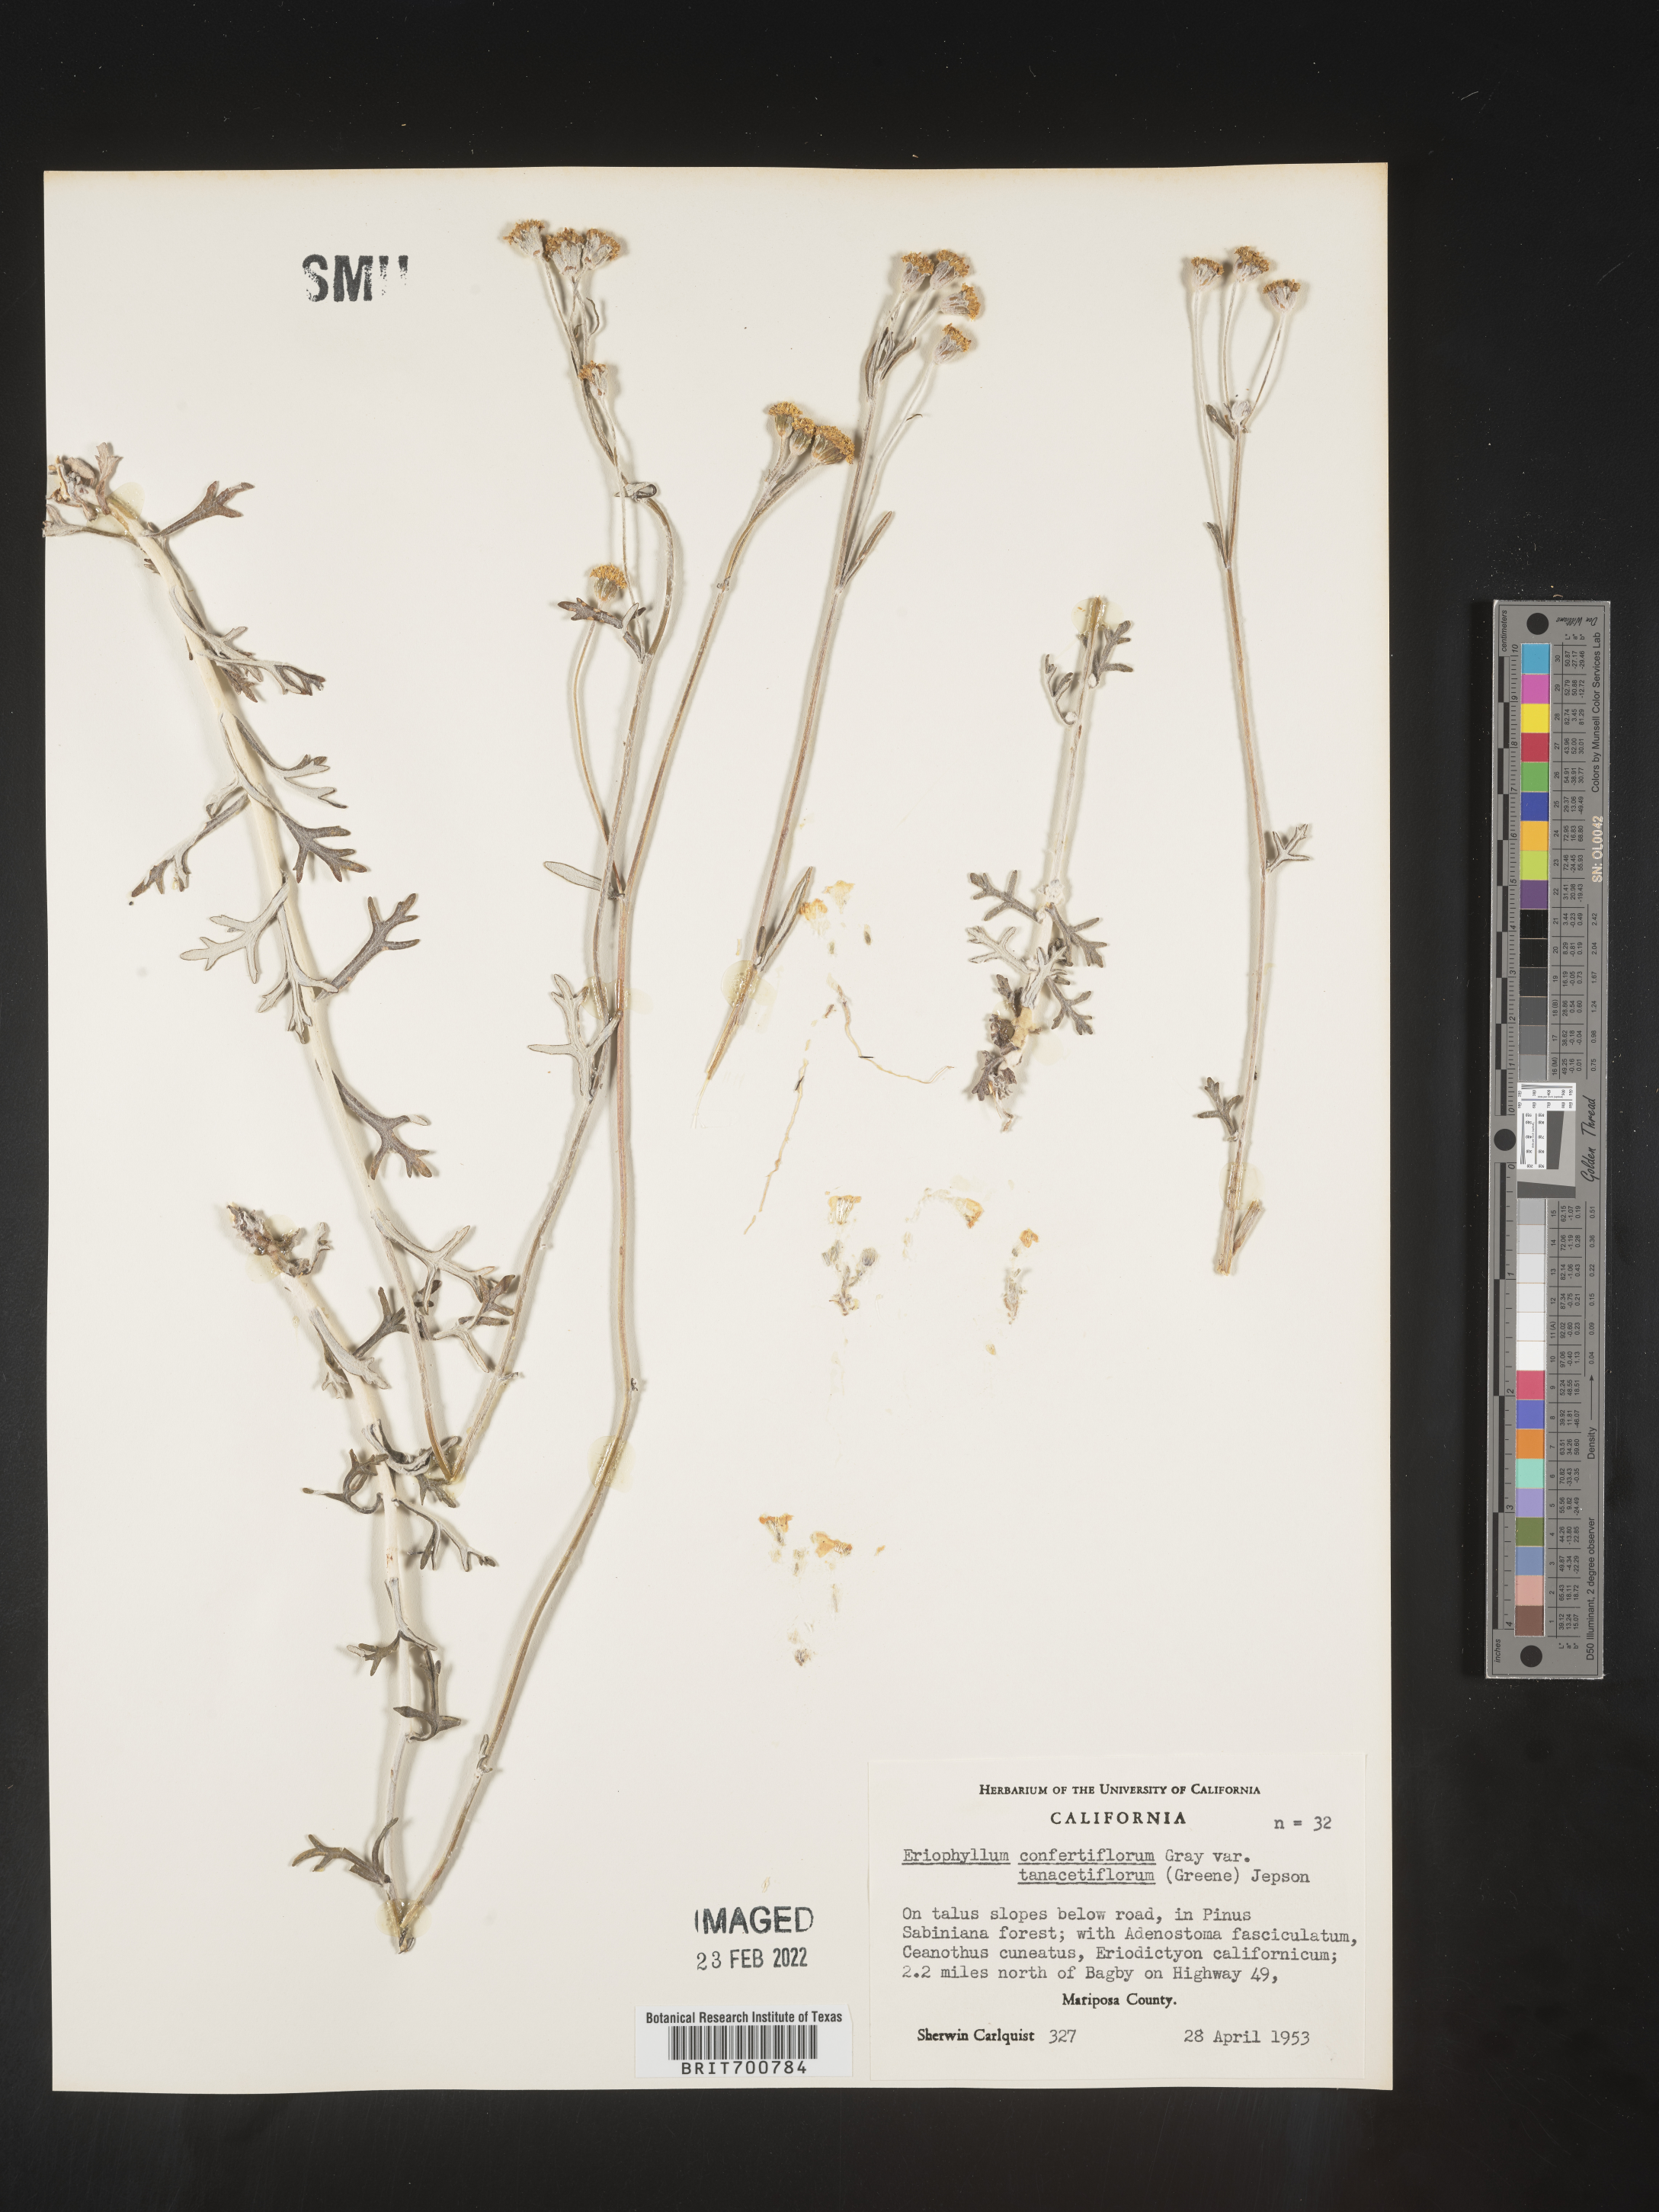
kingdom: Plantae
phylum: Tracheophyta
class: Magnoliopsida
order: Asterales
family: Asteraceae
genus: Eriophyllum
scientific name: Eriophyllum confertiflorum
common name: Golden-yarrow
